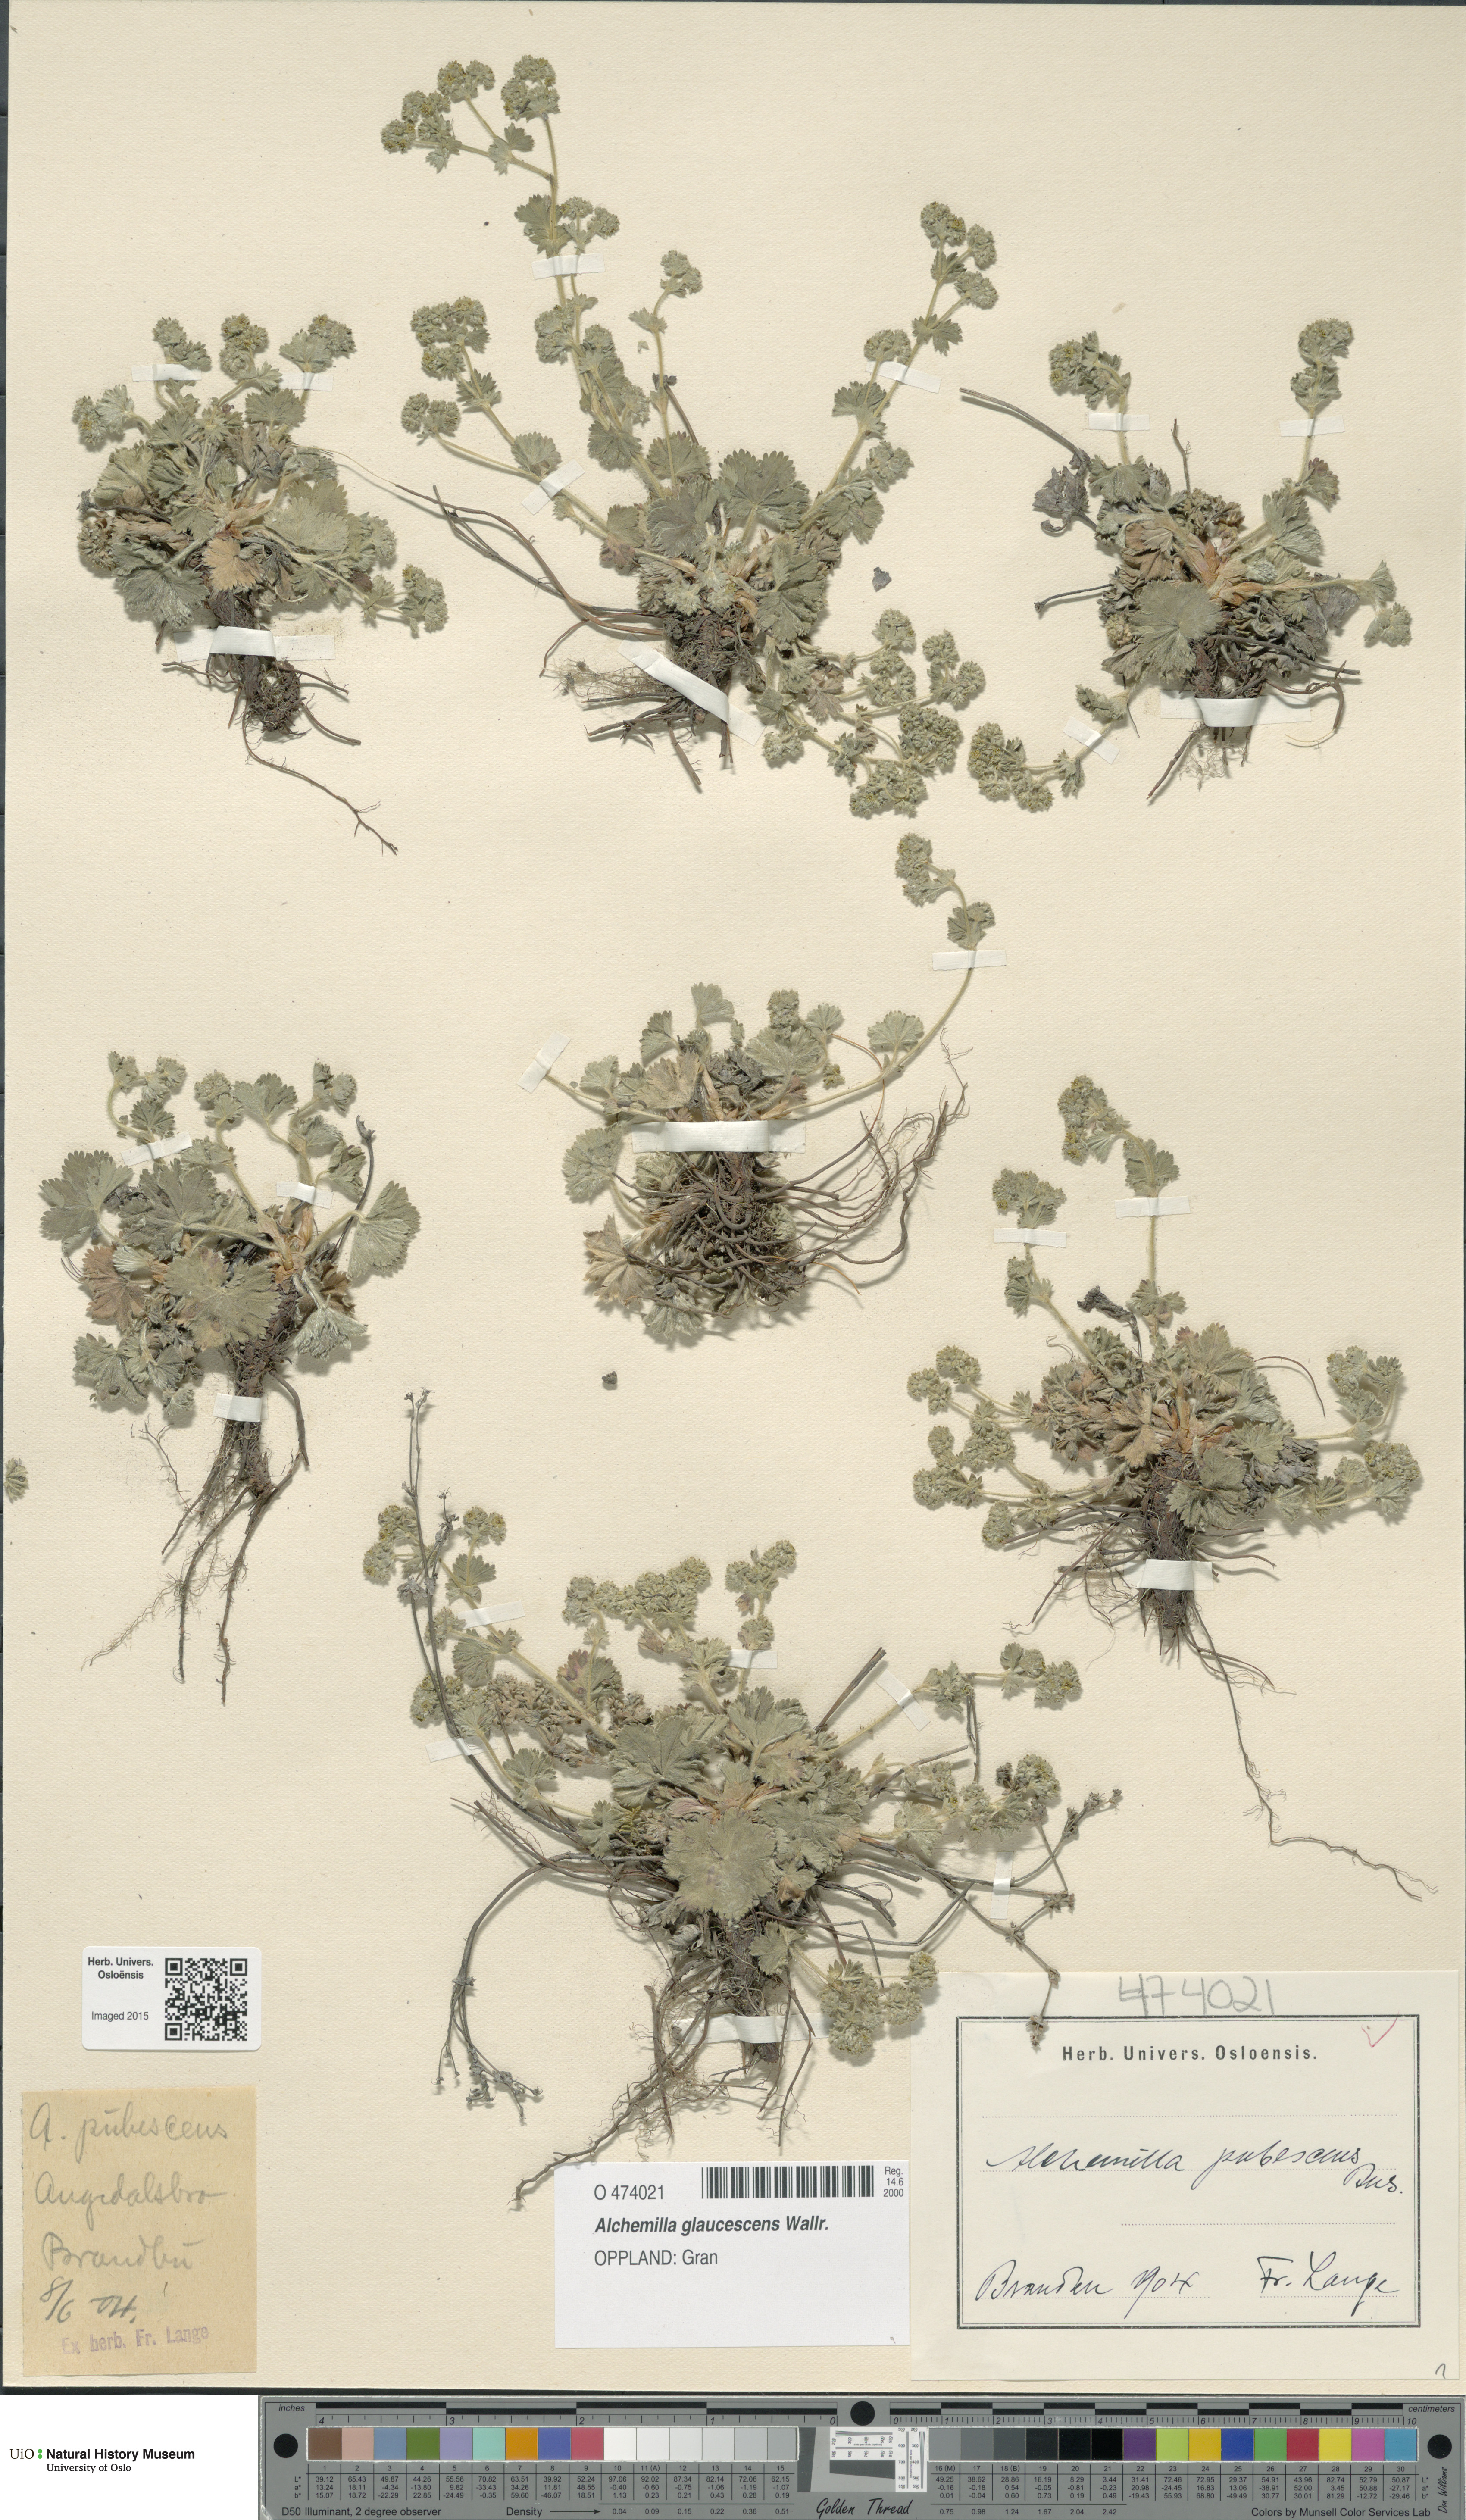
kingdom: Plantae
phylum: Tracheophyta
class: Magnoliopsida
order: Rosales
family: Rosaceae
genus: Alchemilla
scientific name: Alchemilla glaucescens
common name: Silky lady's mantle
